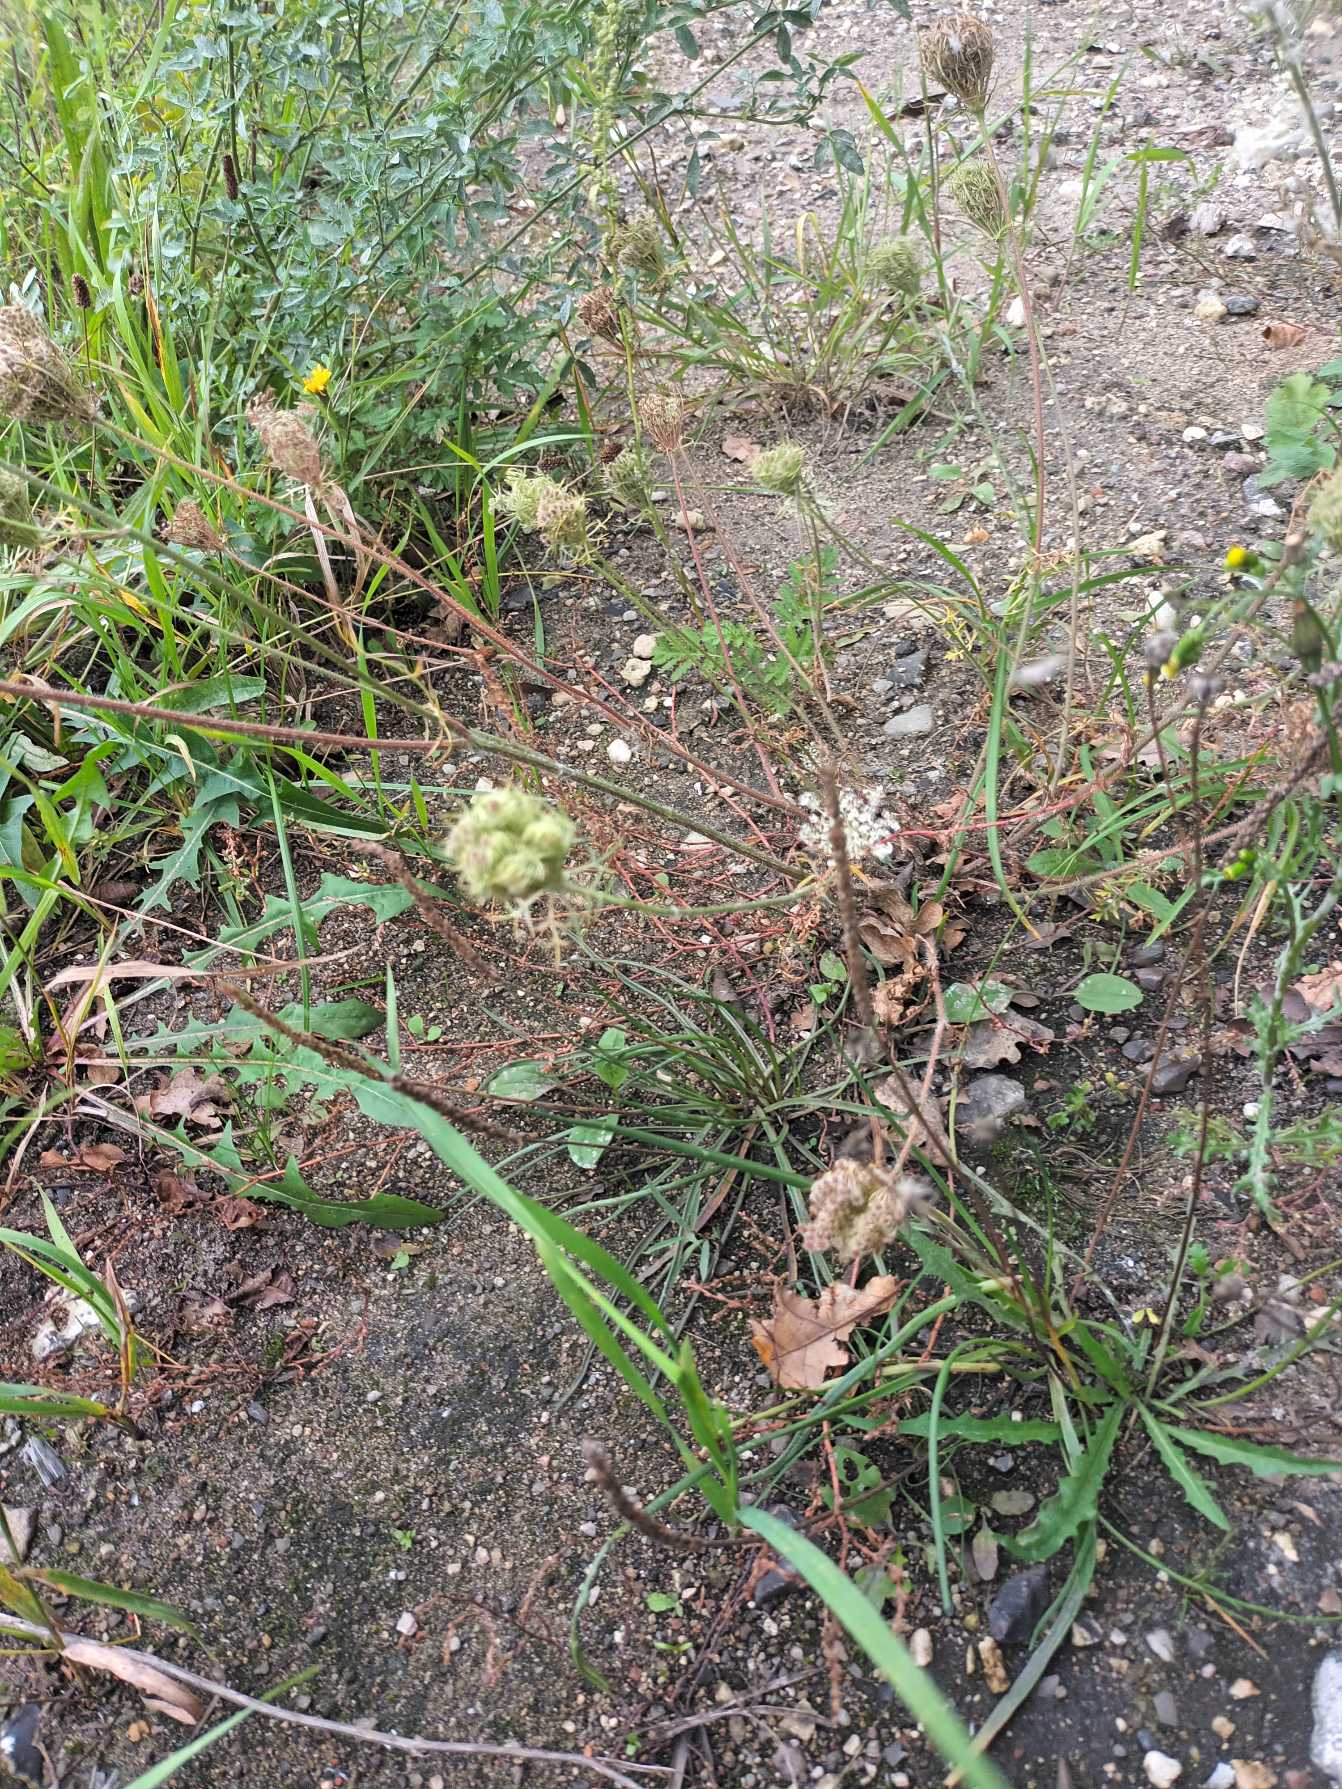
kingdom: Plantae
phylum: Tracheophyta
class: Magnoliopsida
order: Apiales
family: Apiaceae
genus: Daucus
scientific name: Daucus carota
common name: Gulerod
